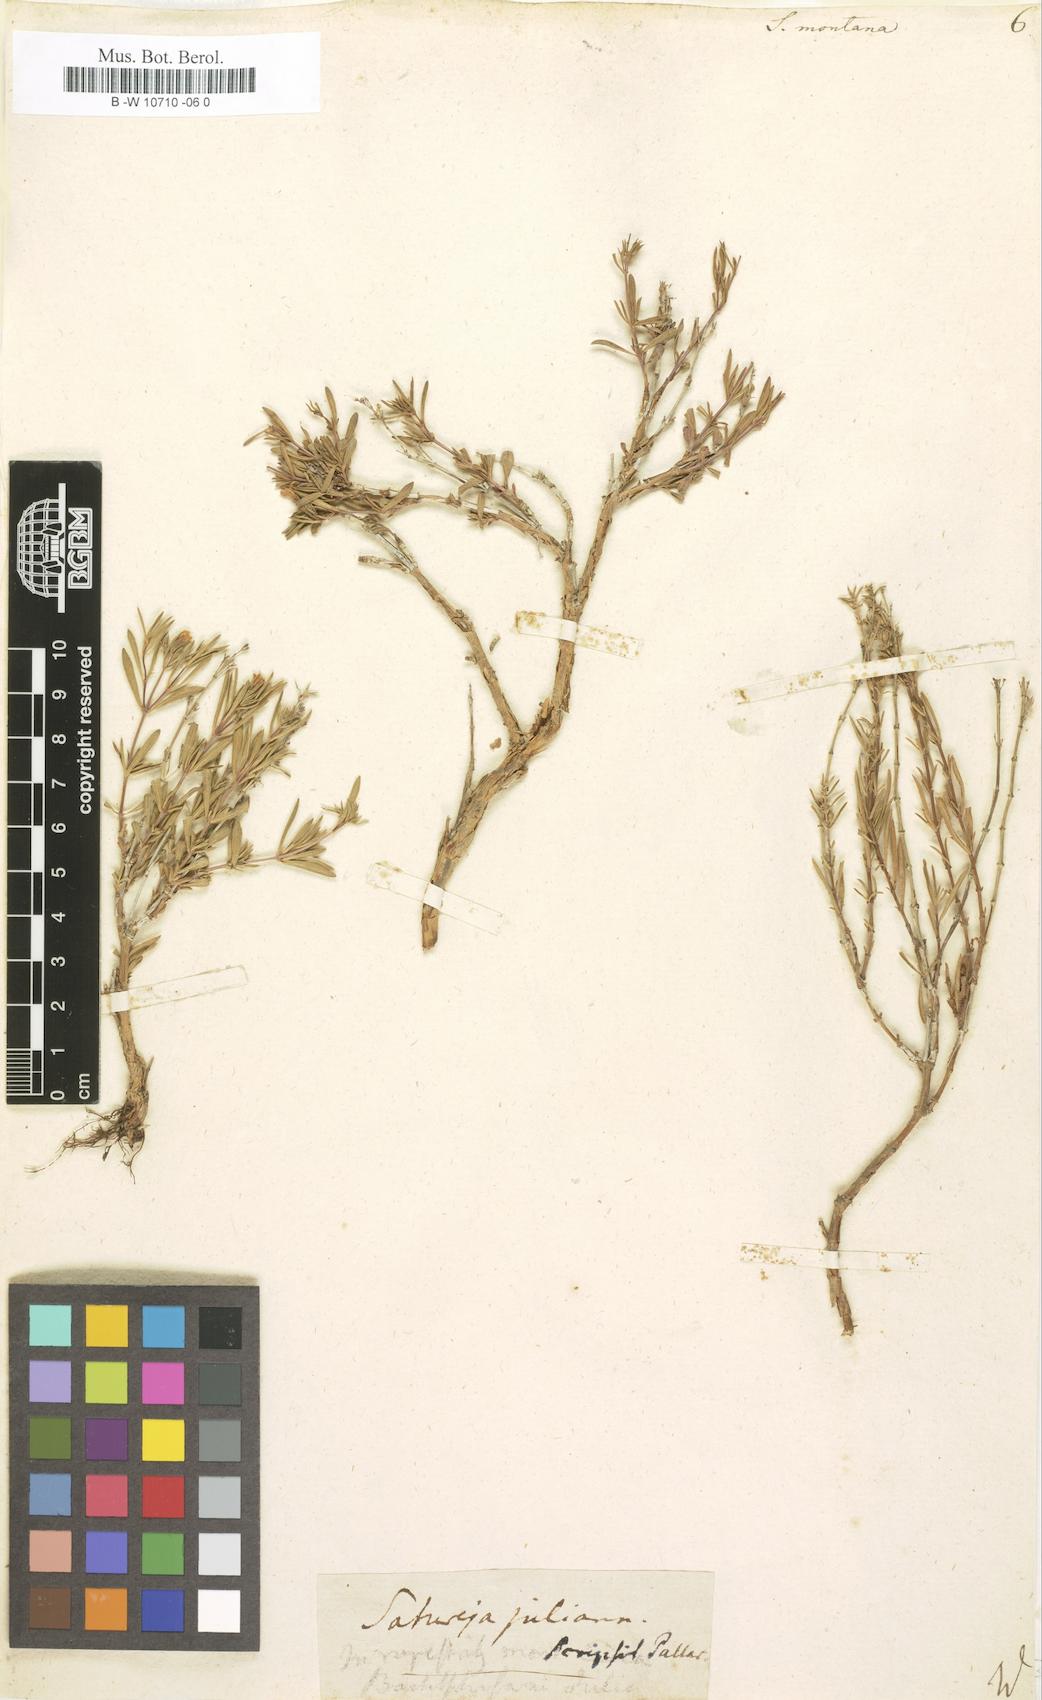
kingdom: Plantae
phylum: Tracheophyta
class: Magnoliopsida
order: Lamiales
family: Lamiaceae
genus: Satureja
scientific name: Satureja montana
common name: Winter savory
